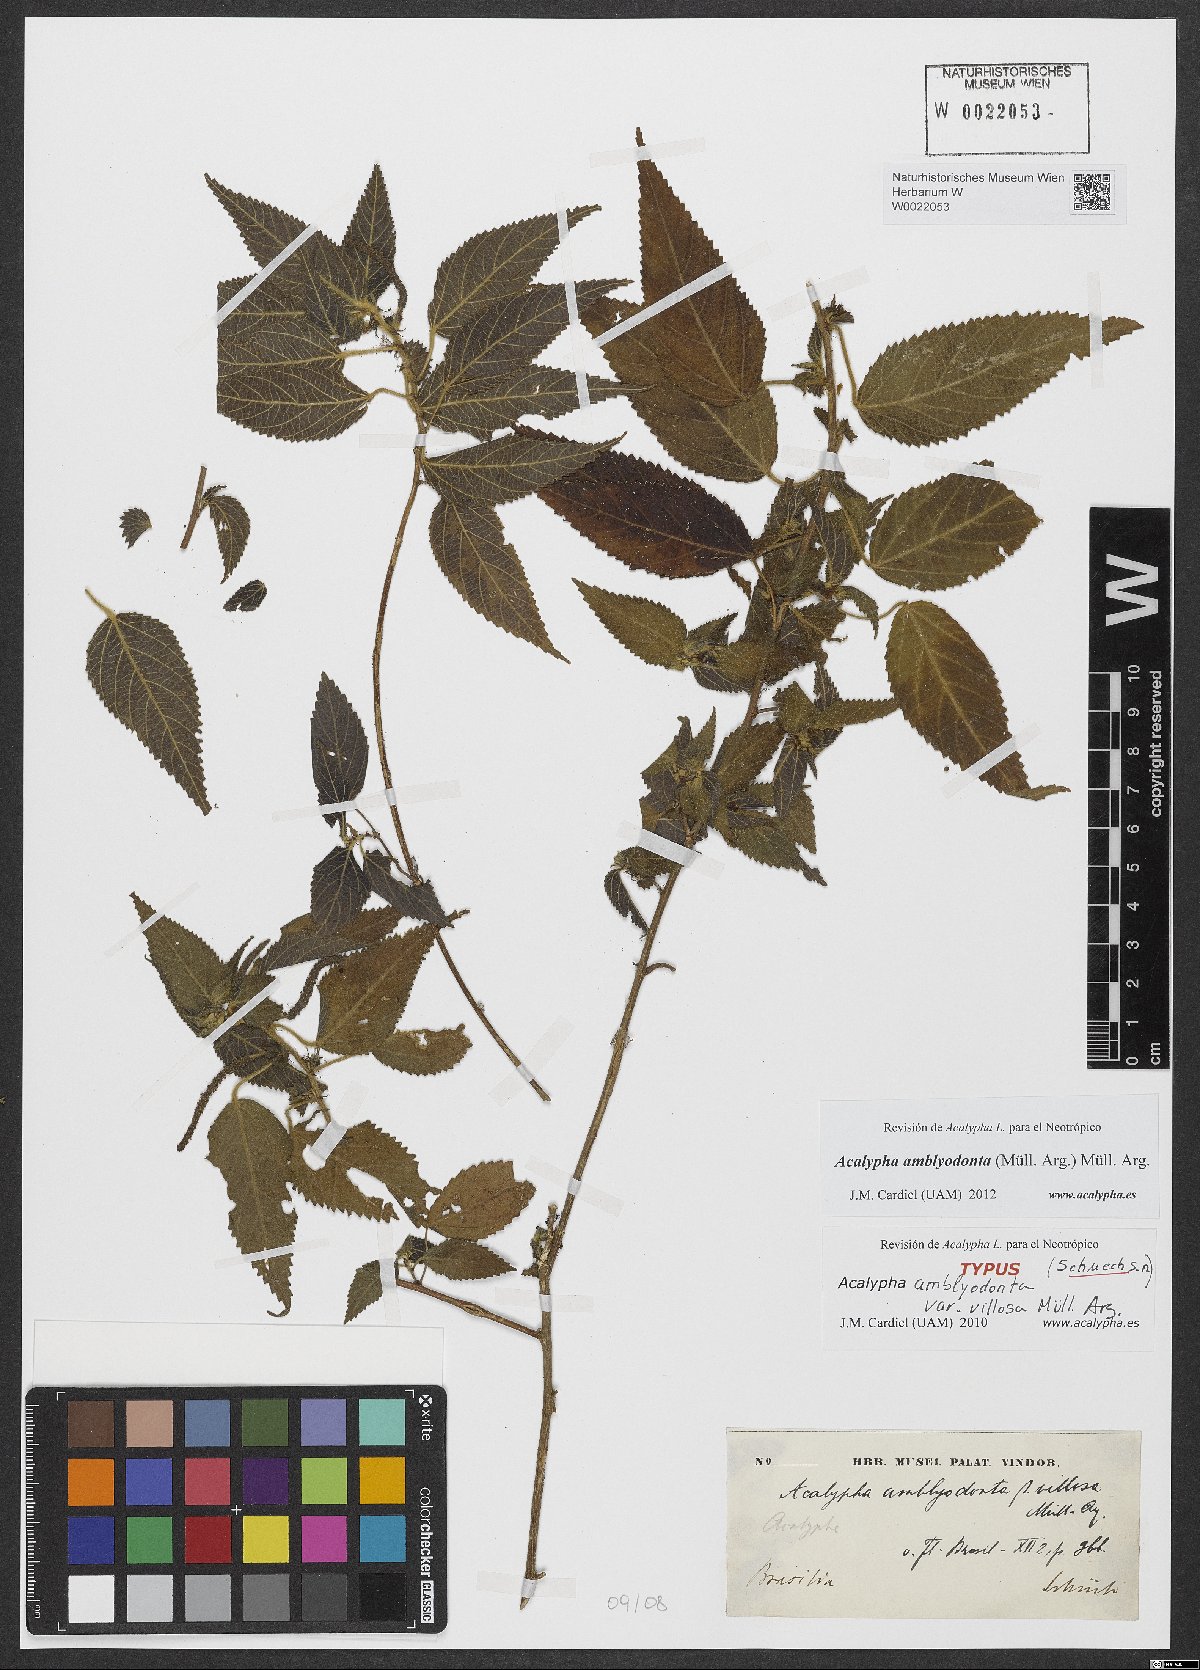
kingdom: Plantae
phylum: Tracheophyta
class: Magnoliopsida
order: Malpighiales
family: Euphorbiaceae
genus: Acalypha
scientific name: Acalypha amblyodonta
